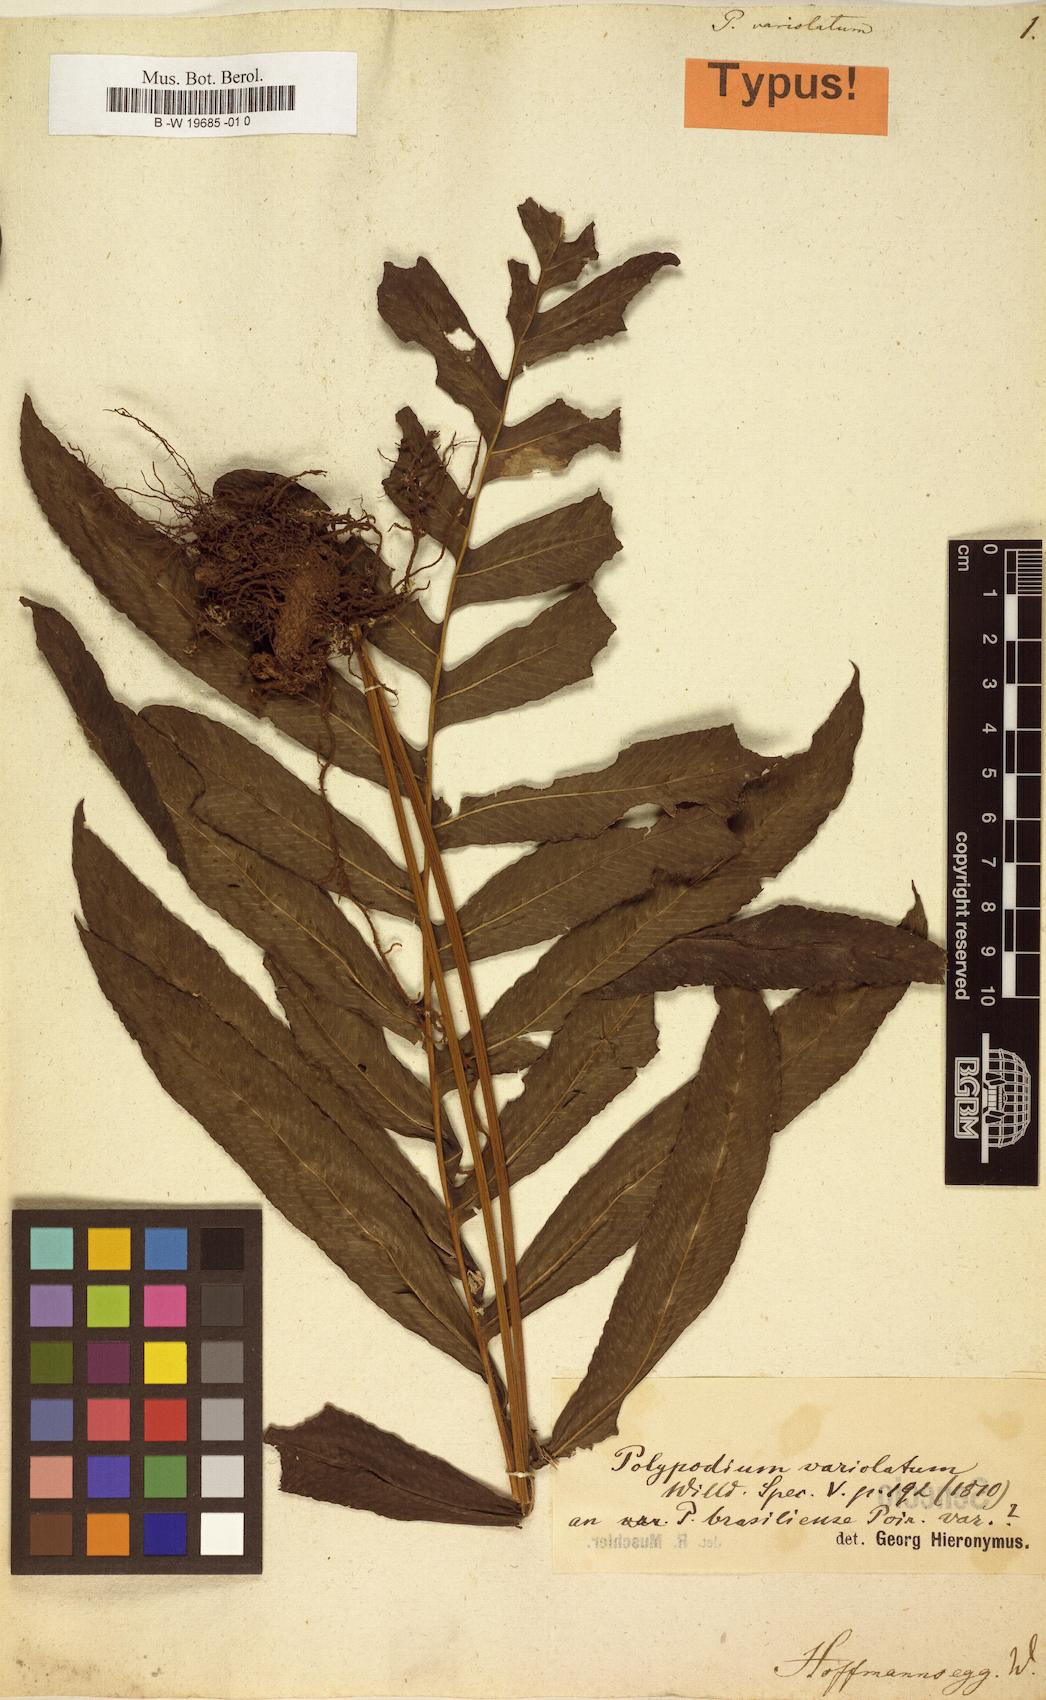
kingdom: Plantae
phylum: Tracheophyta
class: Polypodiopsida
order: Polypodiales
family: Polypodiaceae
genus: Serpocaulon
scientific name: Serpocaulon triseriale
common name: Angle-vein fern
